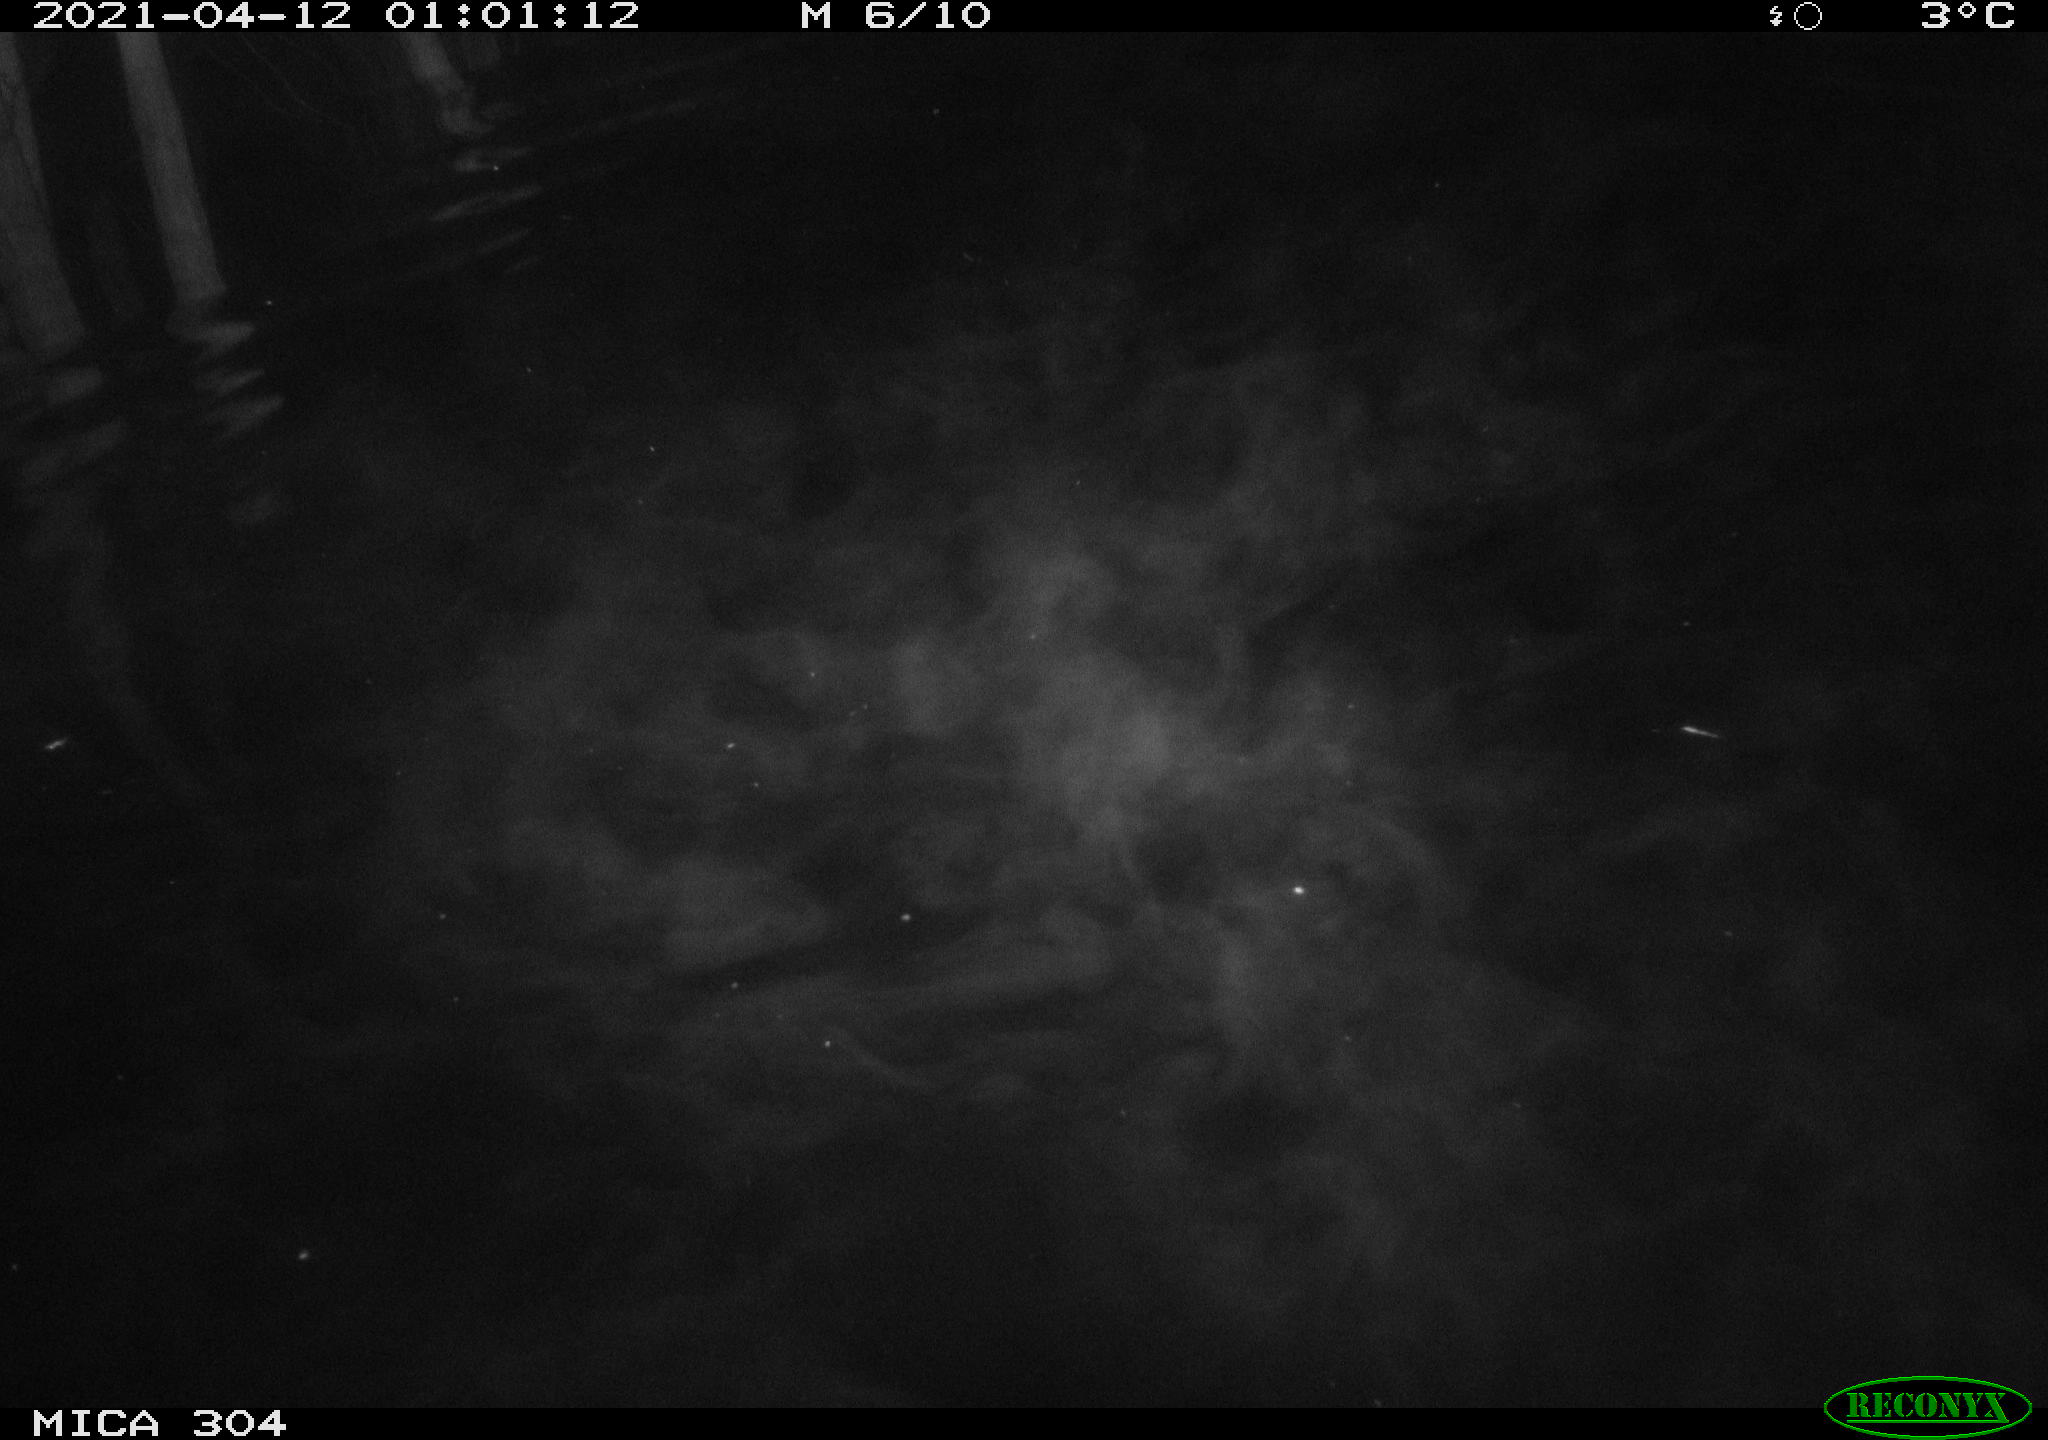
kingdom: Animalia
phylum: Chordata
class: Aves
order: Anseriformes
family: Anatidae
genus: Anas
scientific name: Anas
